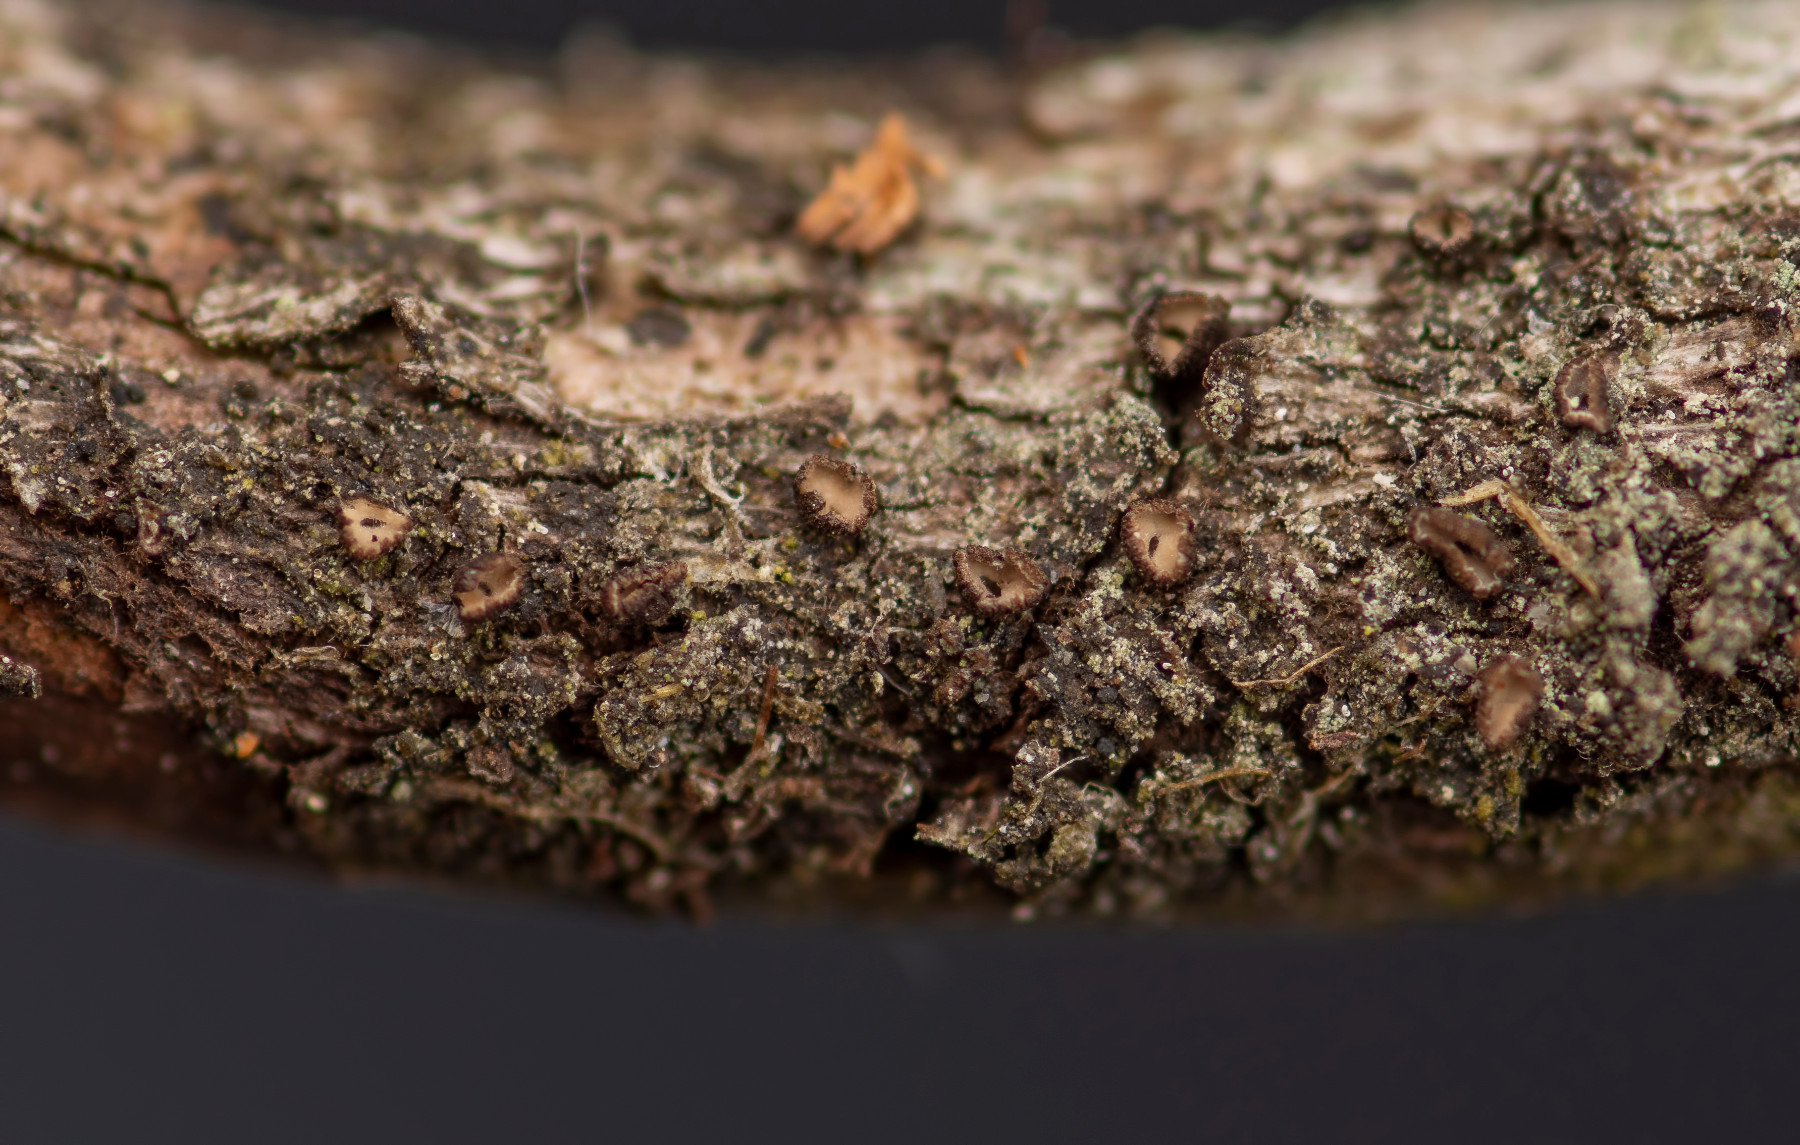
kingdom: Fungi
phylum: Ascomycota
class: Leotiomycetes
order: Helotiales
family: Dermateaceae
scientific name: Dermateaceae
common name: gråskivefamilien
